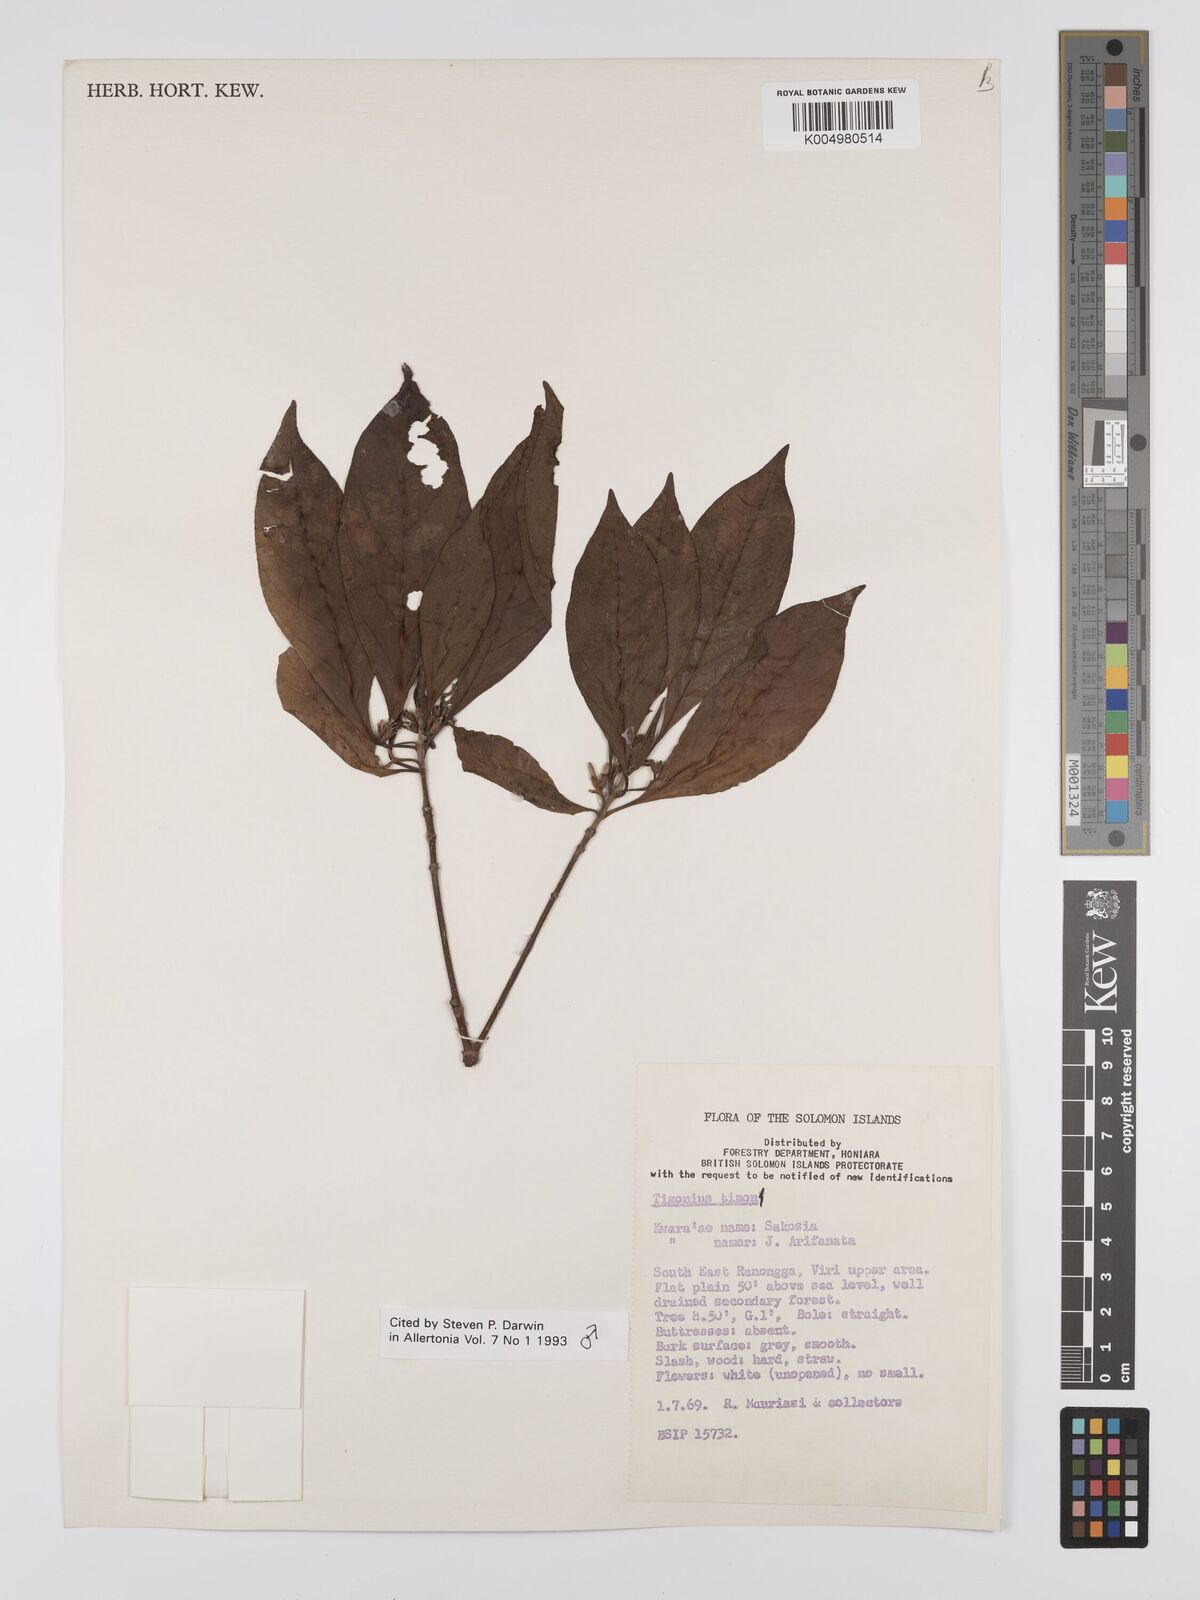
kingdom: Plantae
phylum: Tracheophyta
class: Magnoliopsida
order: Gentianales
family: Rubiaceae
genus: Timonius
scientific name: Timonius timon
